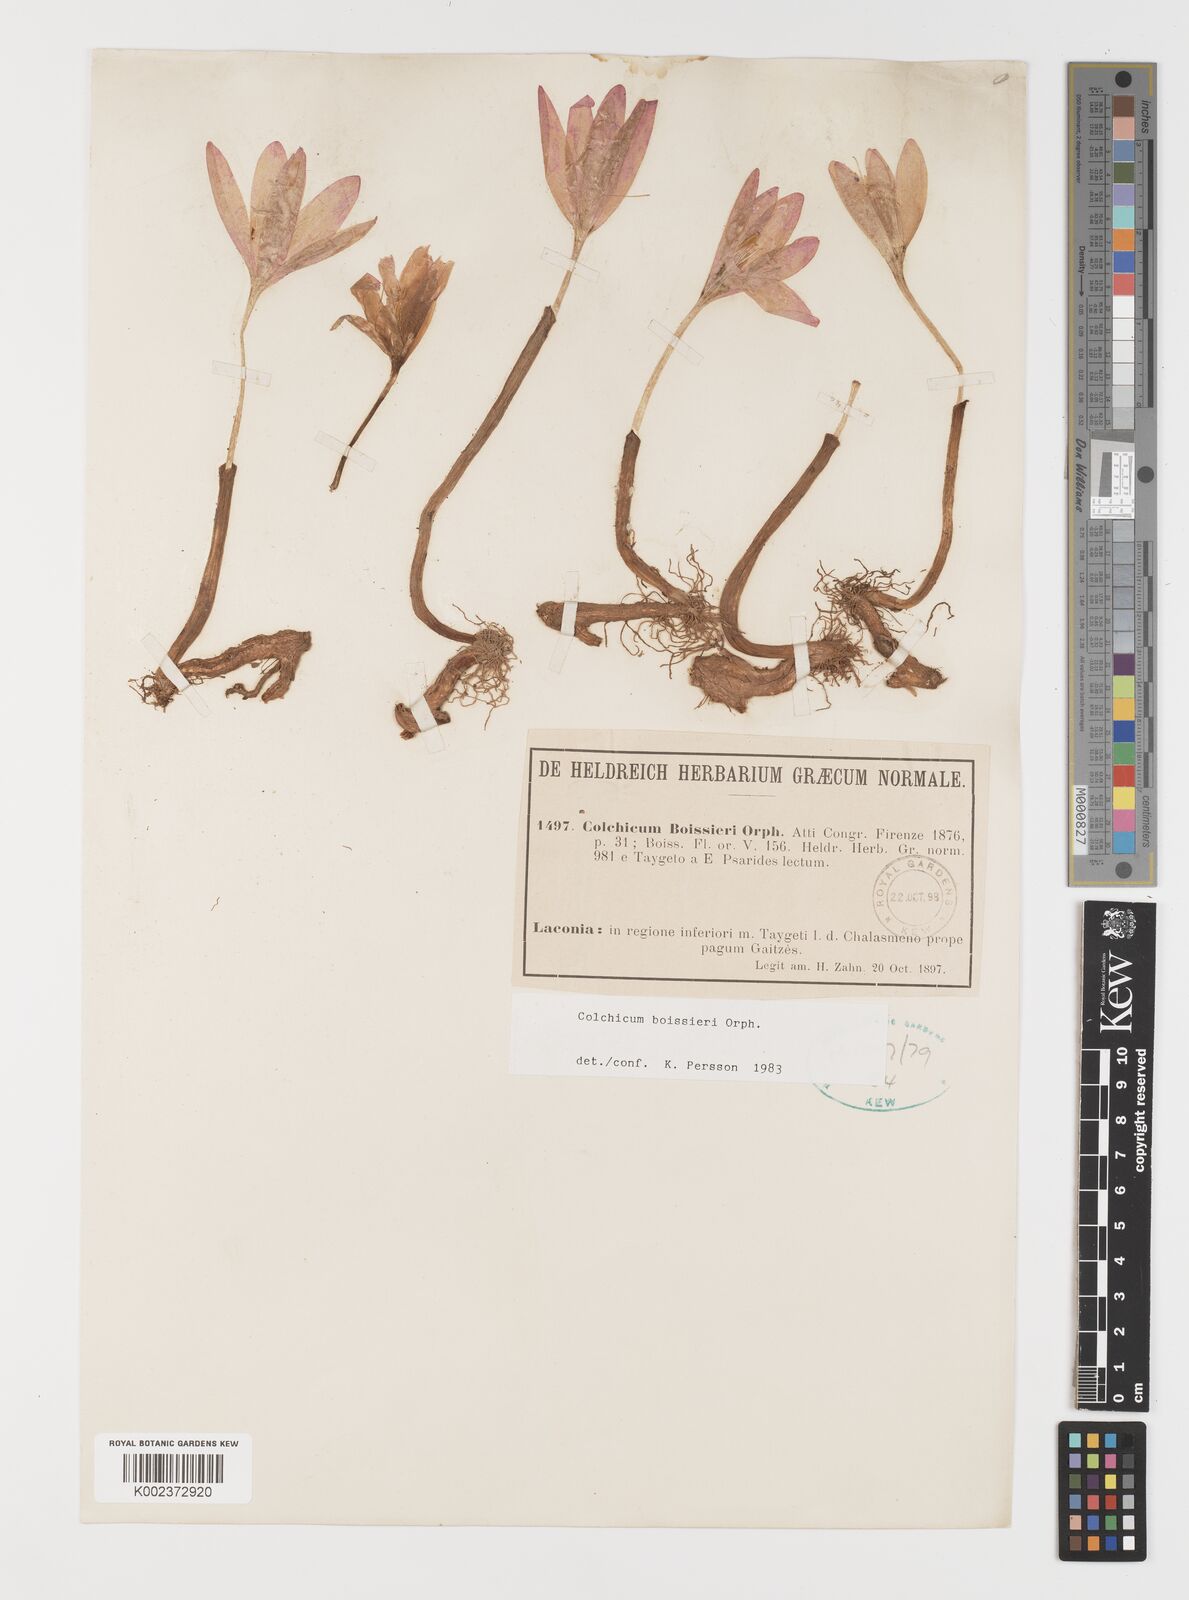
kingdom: Plantae
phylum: Tracheophyta
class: Liliopsida
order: Liliales
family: Colchicaceae
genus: Colchicum
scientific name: Colchicum boissieri
